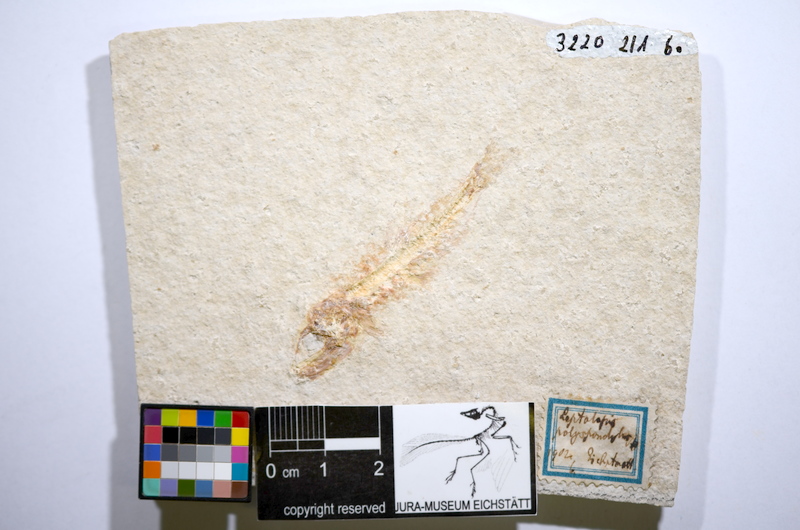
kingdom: Animalia
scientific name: Animalia
